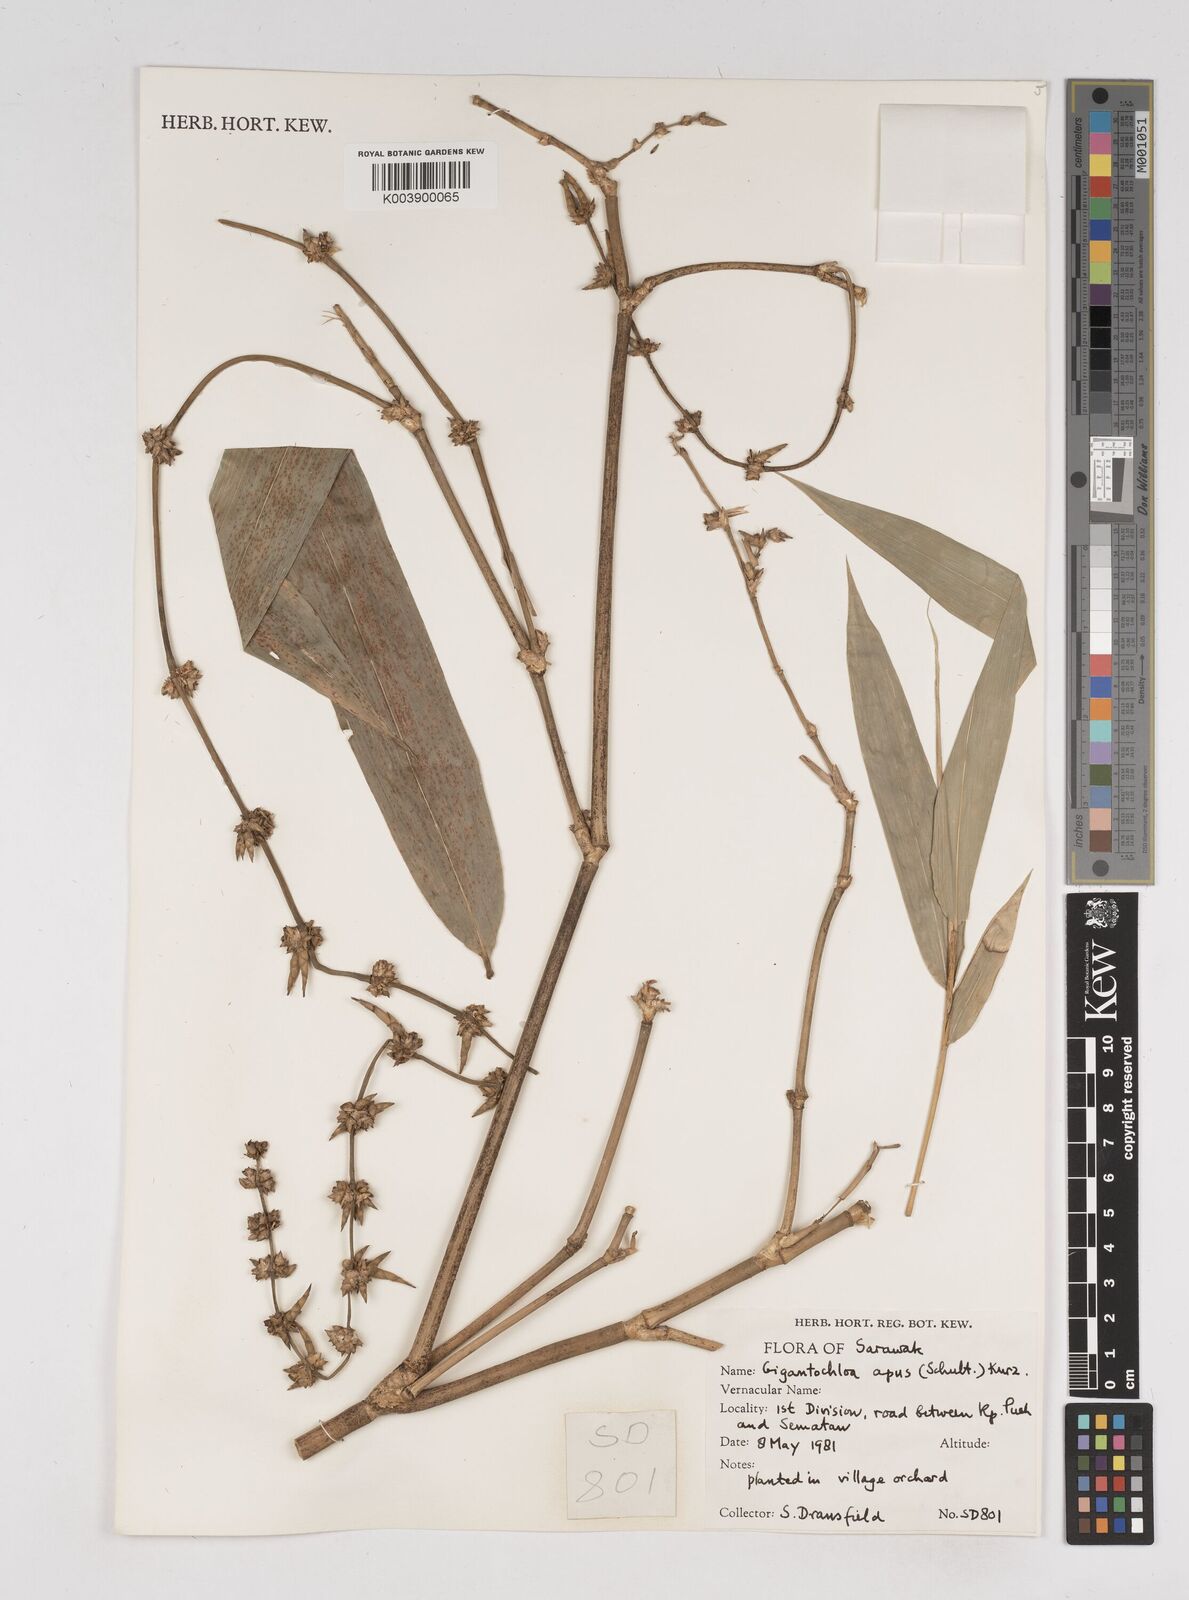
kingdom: Plantae
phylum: Tracheophyta
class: Liliopsida
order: Poales
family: Poaceae
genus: Gigantochloa
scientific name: Gigantochloa apus
